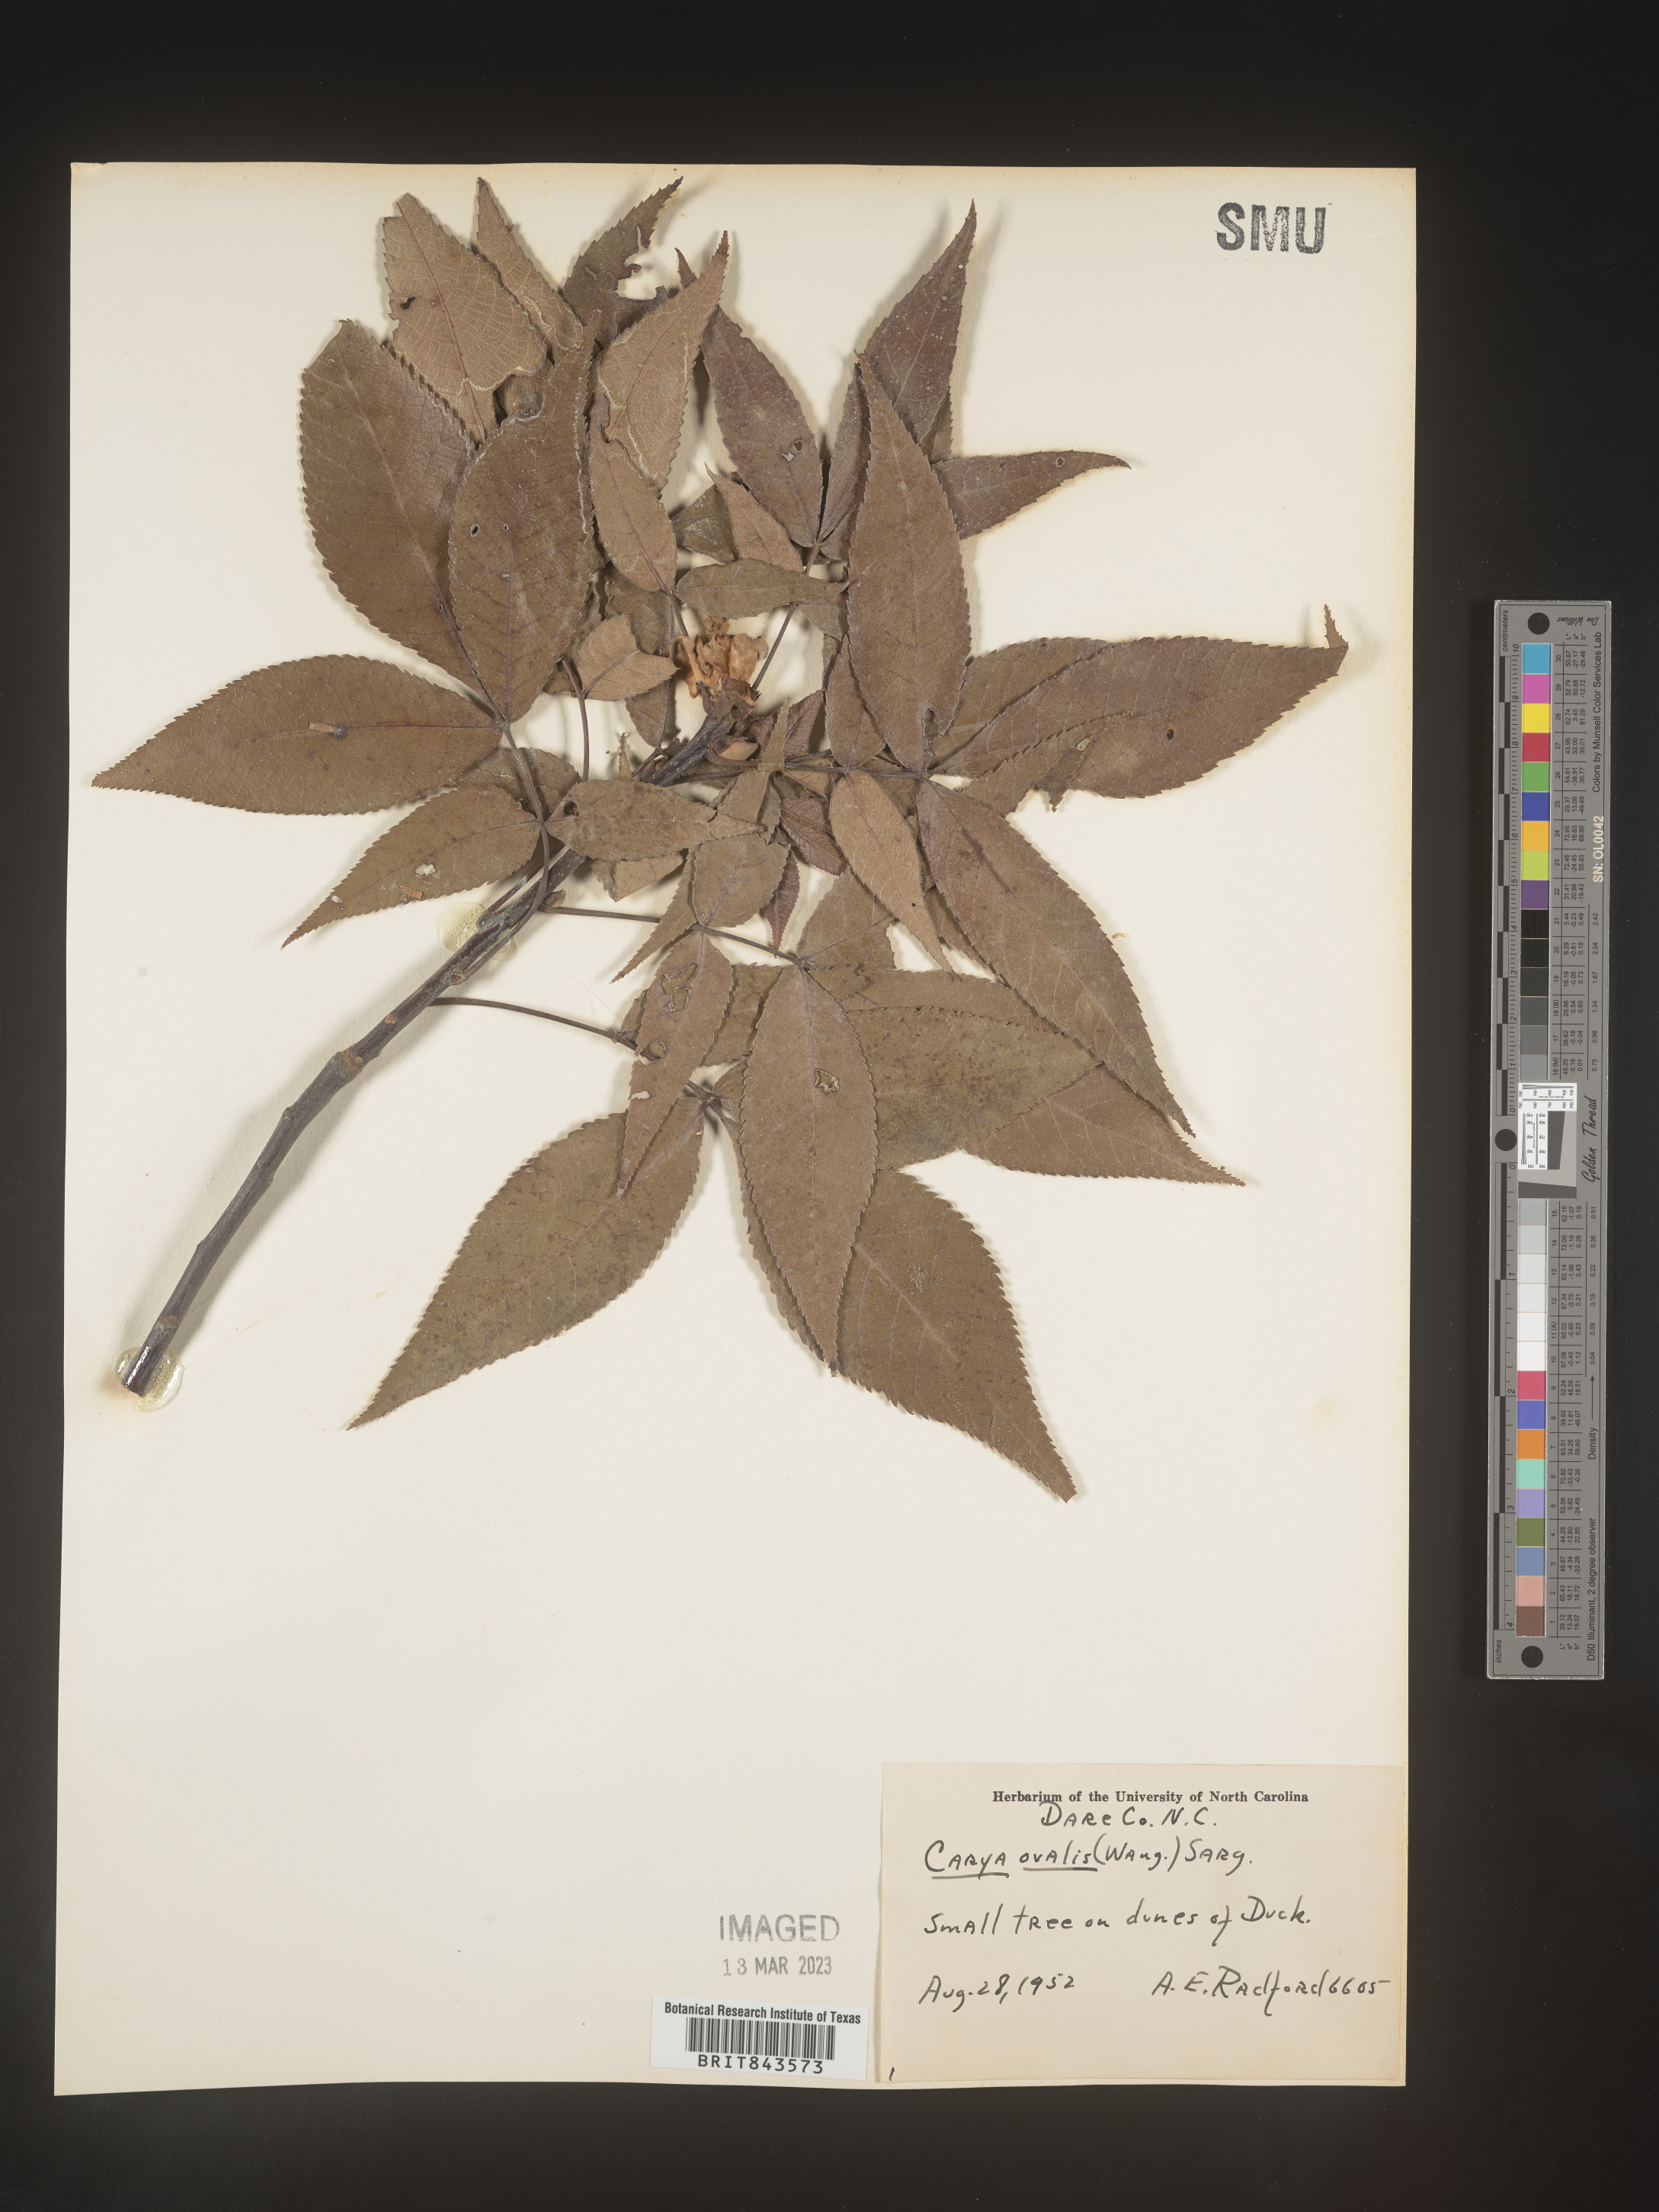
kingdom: Plantae
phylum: Tracheophyta
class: Magnoliopsida
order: Fagales
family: Juglandaceae
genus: Carya
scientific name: Carya ovalis
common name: False shagbark
